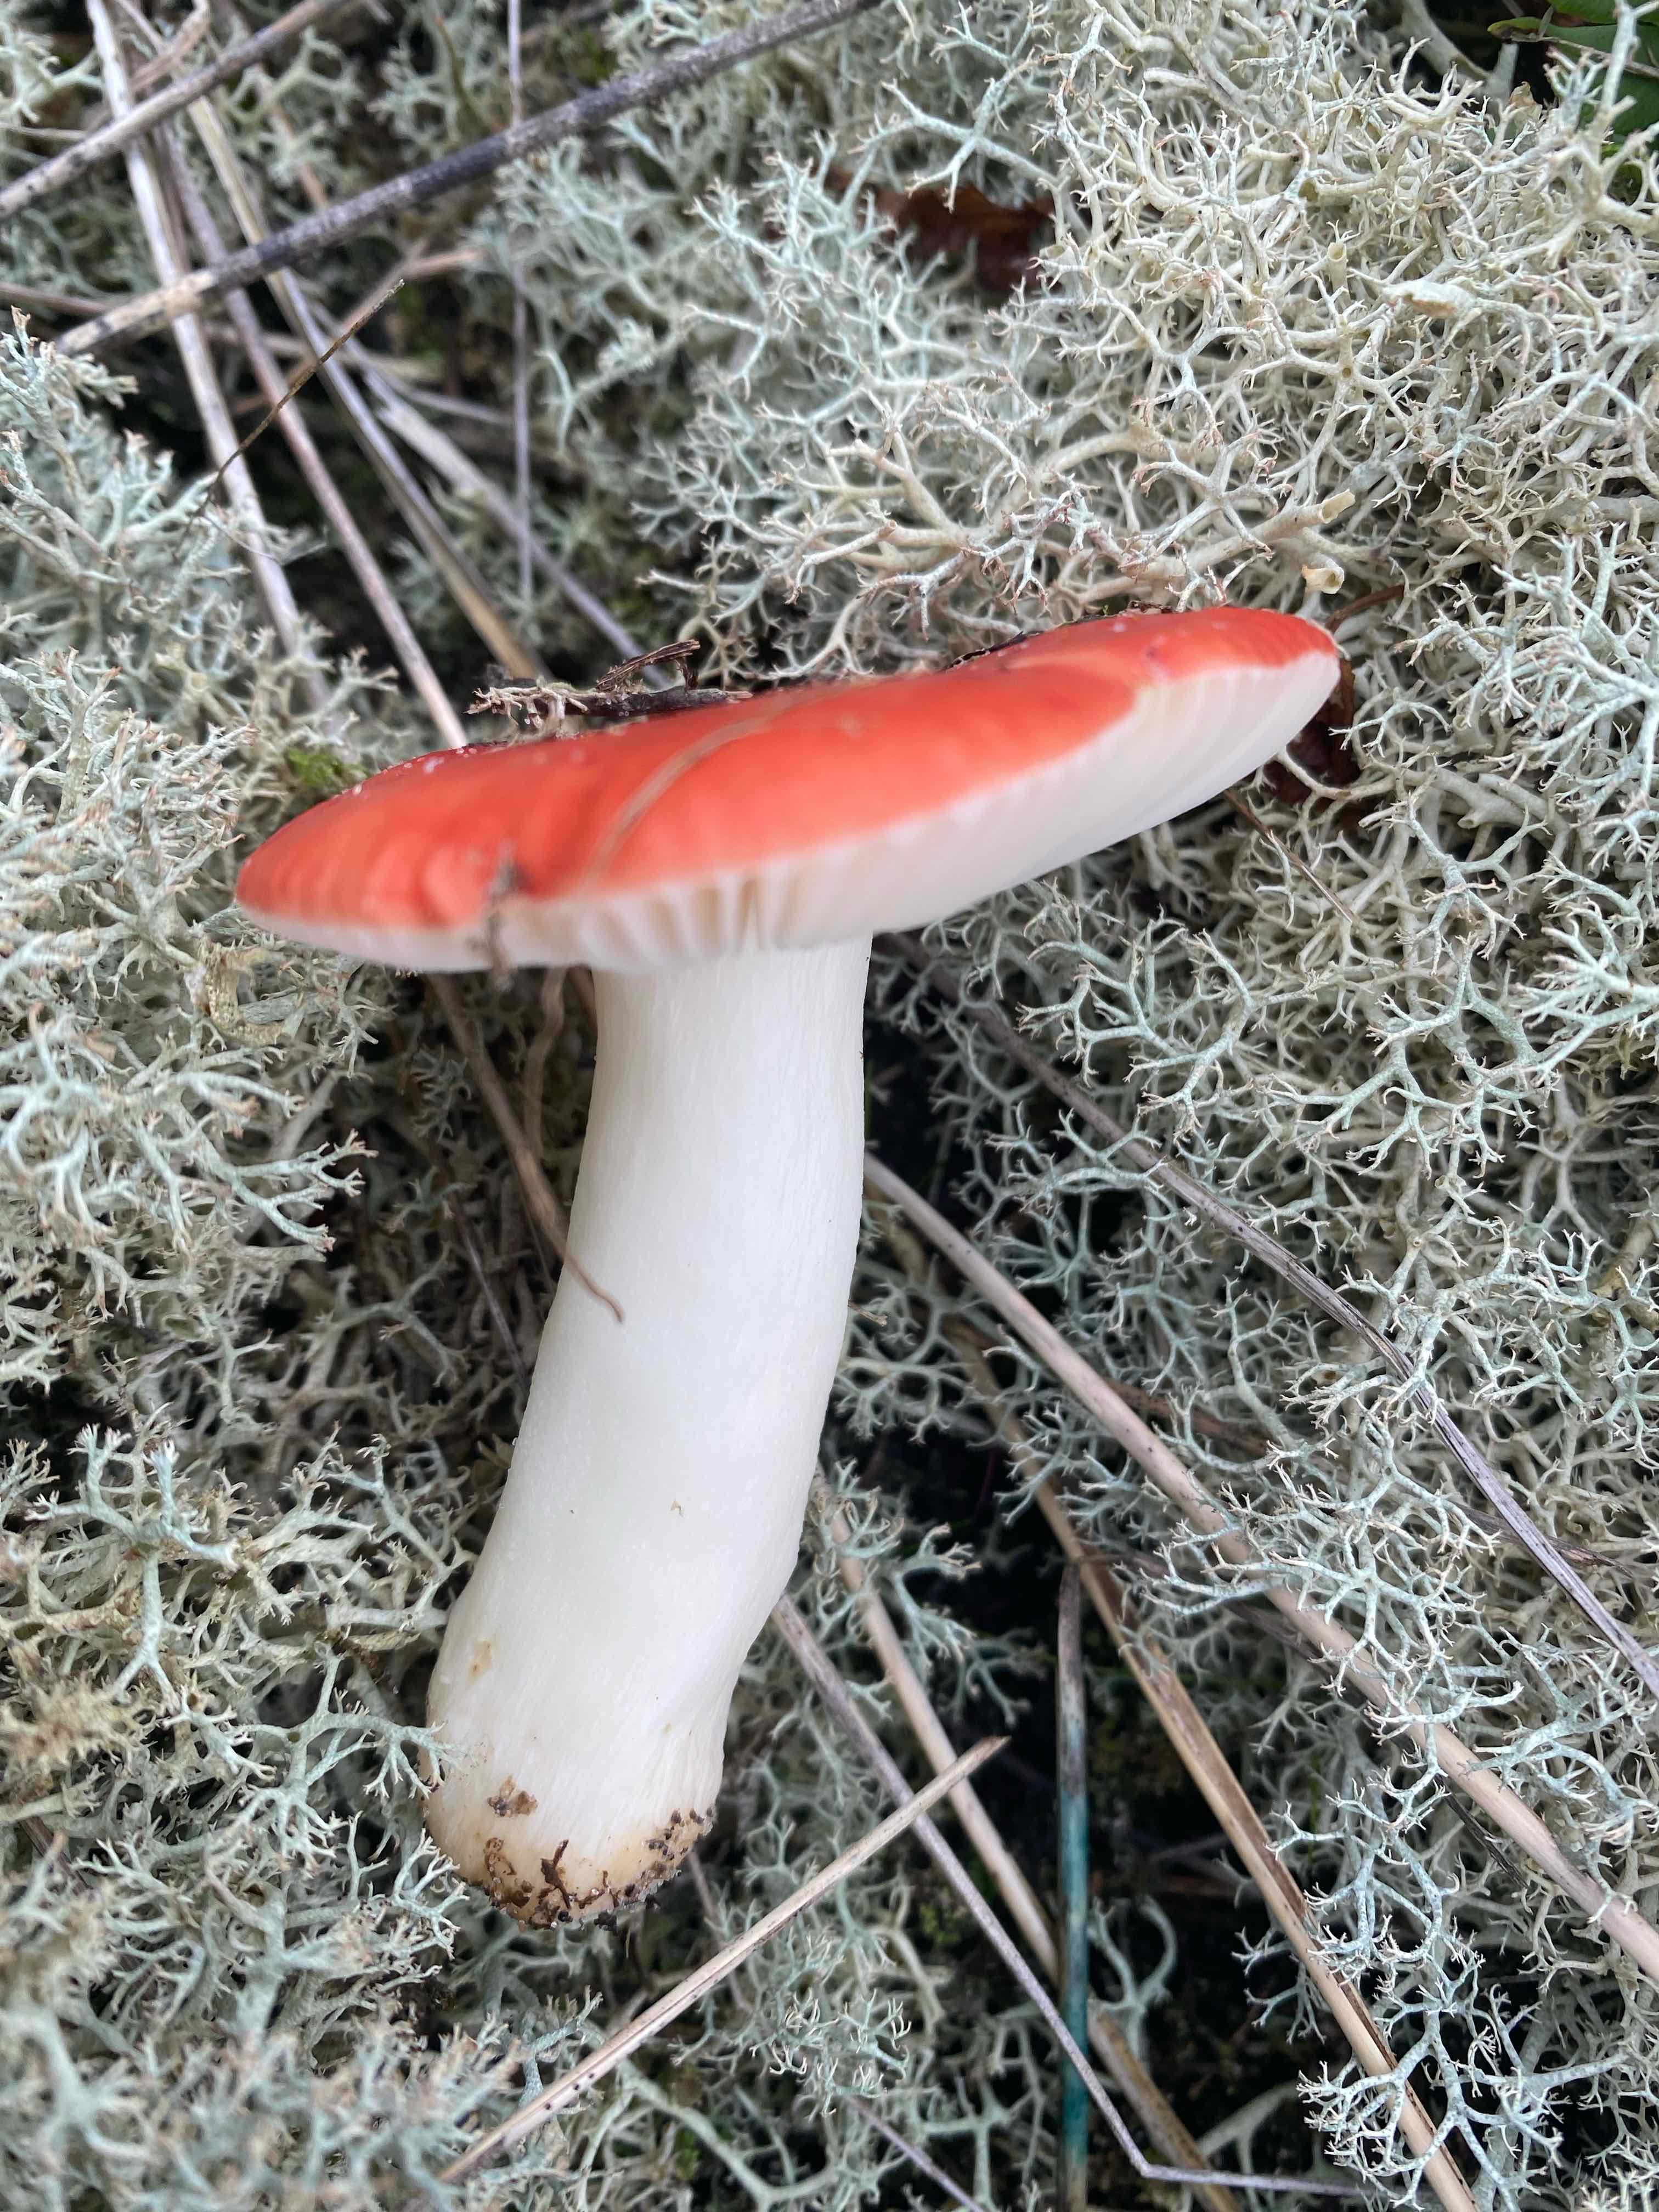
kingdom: Fungi
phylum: Basidiomycota
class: Agaricomycetes
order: Russulales
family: Russulaceae
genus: Russula
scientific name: Russula emetica
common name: stor gift-skørhat
